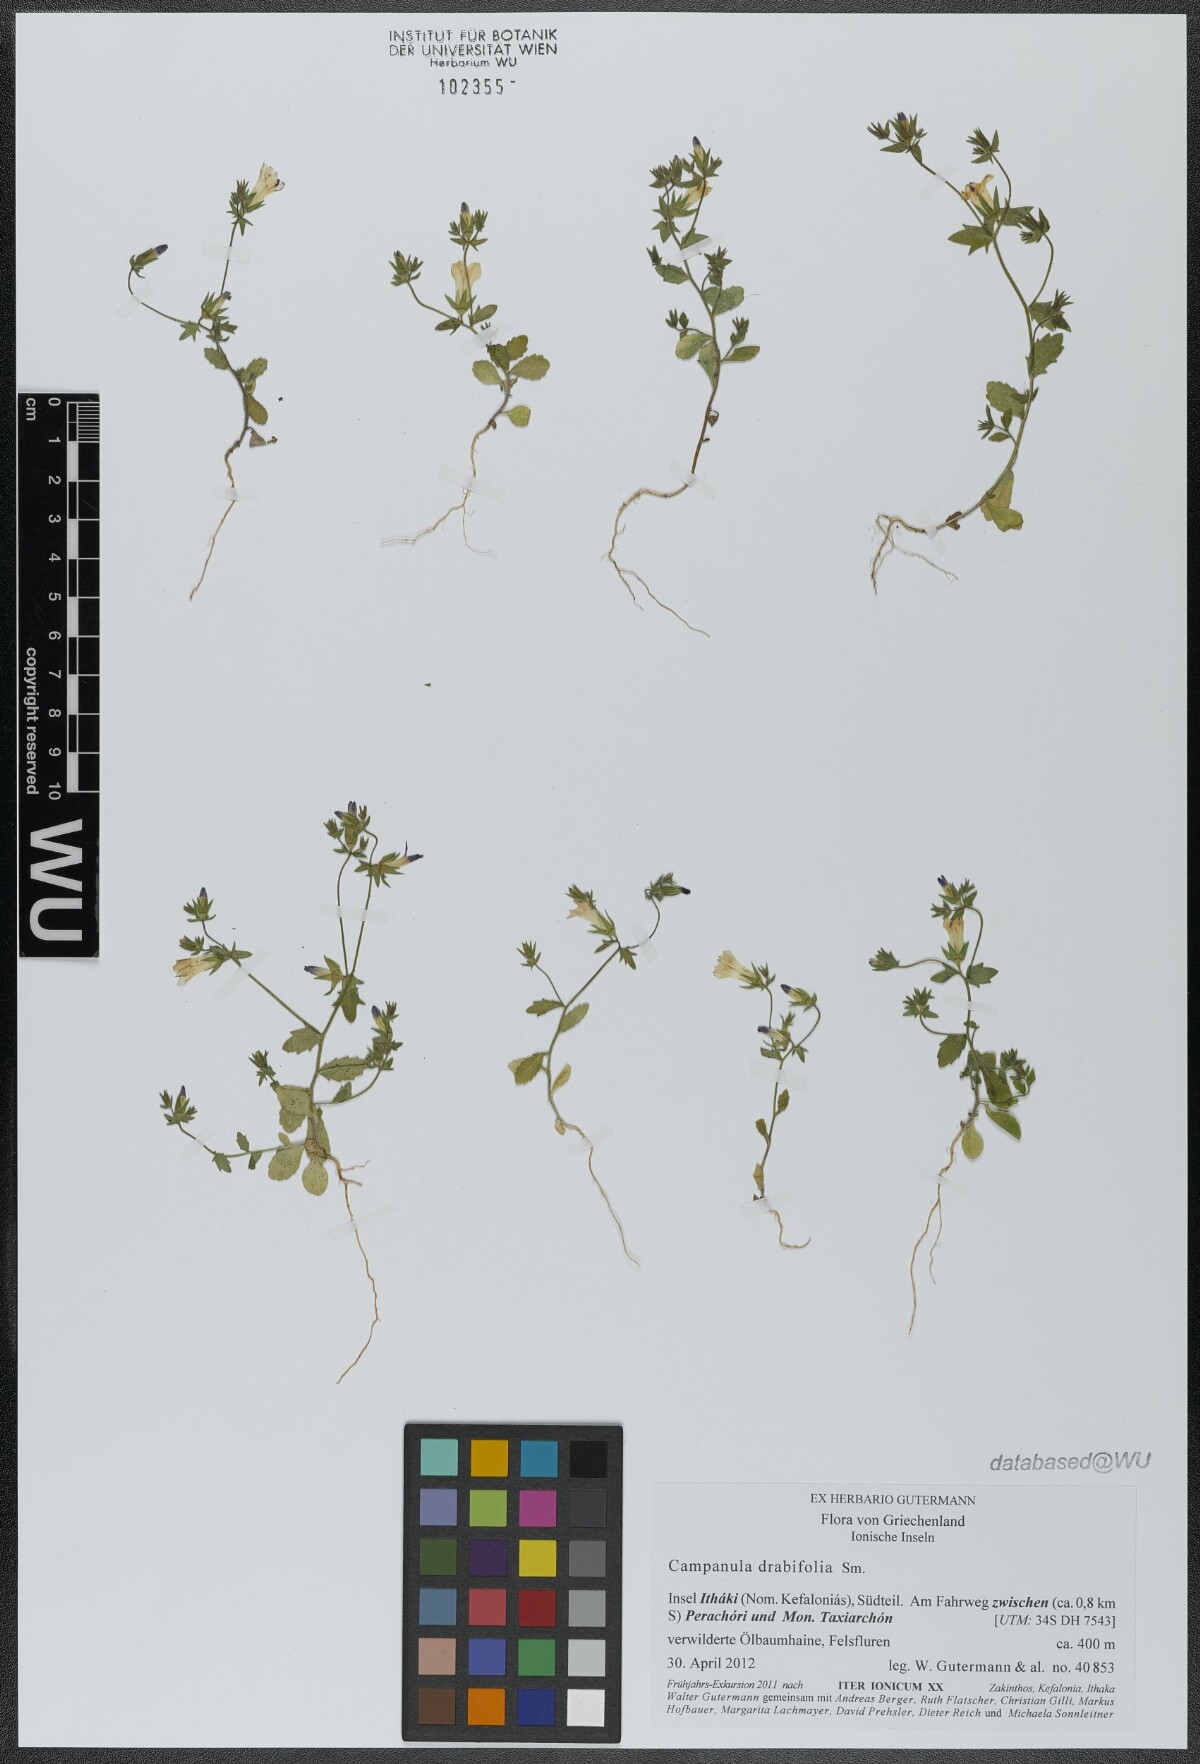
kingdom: Plantae
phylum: Tracheophyta
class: Magnoliopsida
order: Asterales
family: Campanulaceae
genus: Campanula
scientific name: Campanula drabifolia
